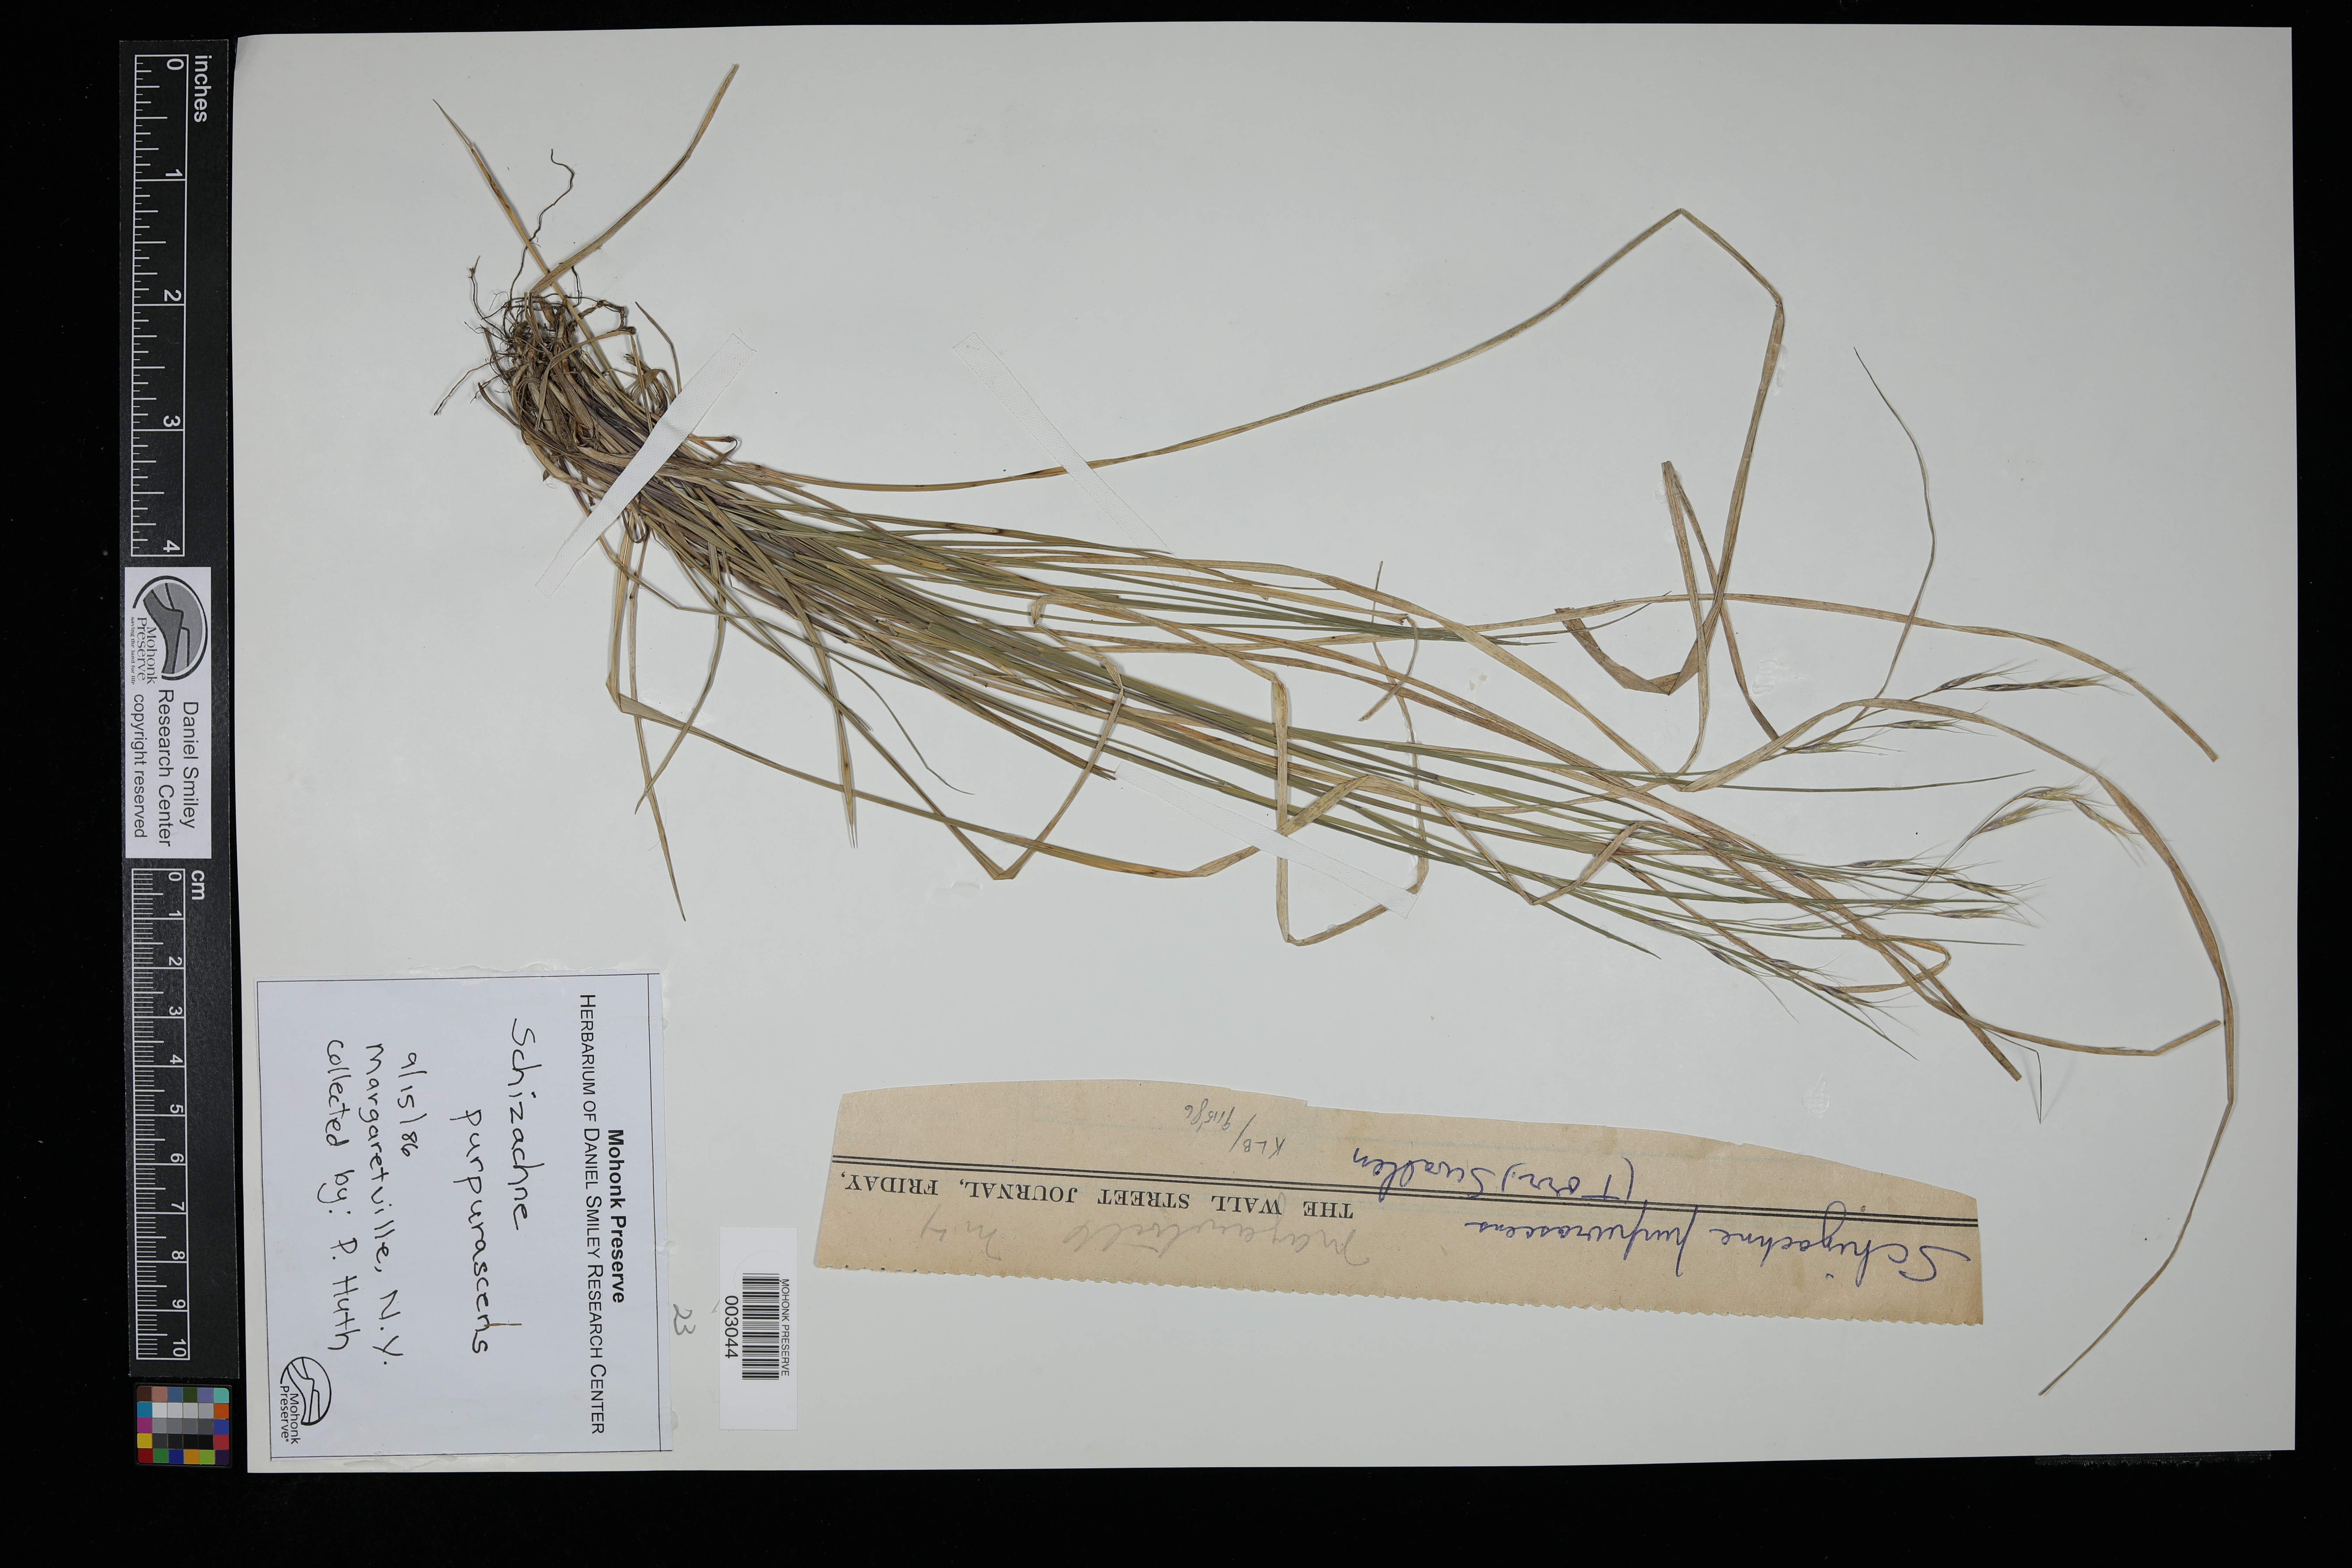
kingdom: Plantae
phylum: Tracheophyta
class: Liliopsida
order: Poales
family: Poaceae
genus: Schizachne
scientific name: Schizachne purpurascens
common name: False melic
